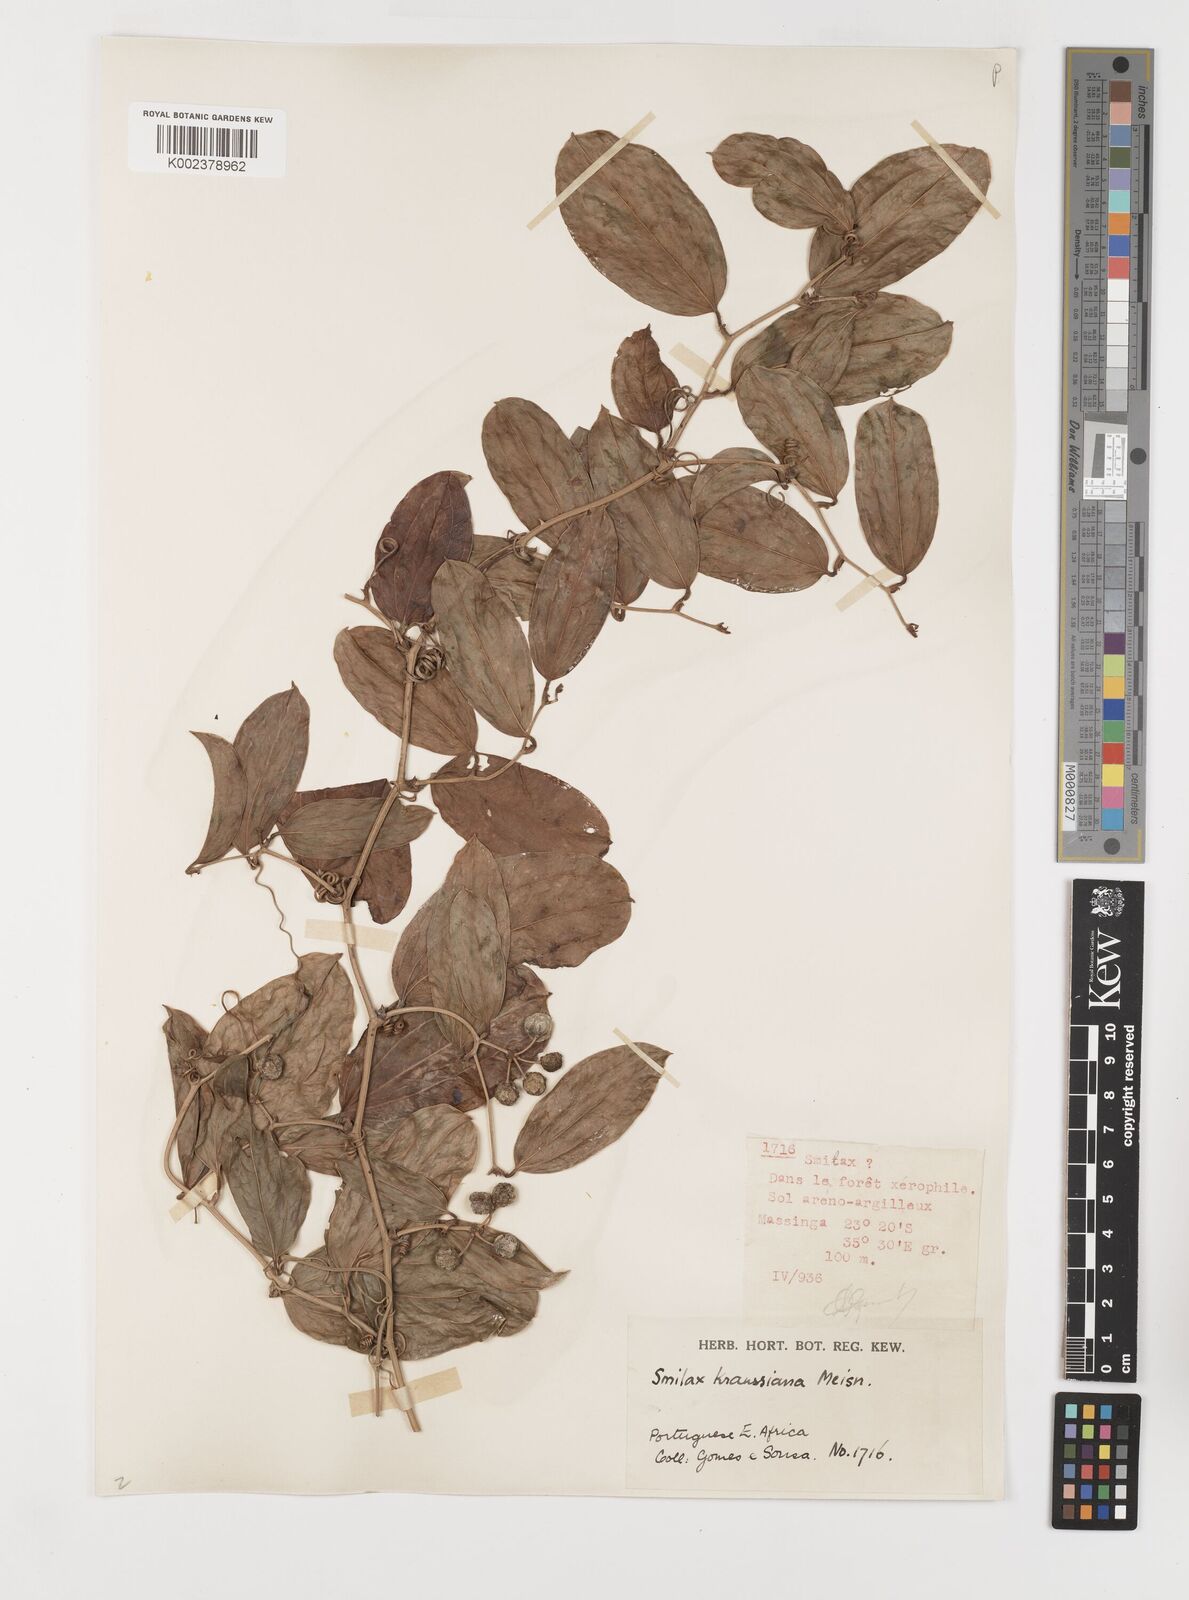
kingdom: Plantae
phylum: Tracheophyta
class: Liliopsida
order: Liliales
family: Smilacaceae
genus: Smilax
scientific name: Smilax anceps
